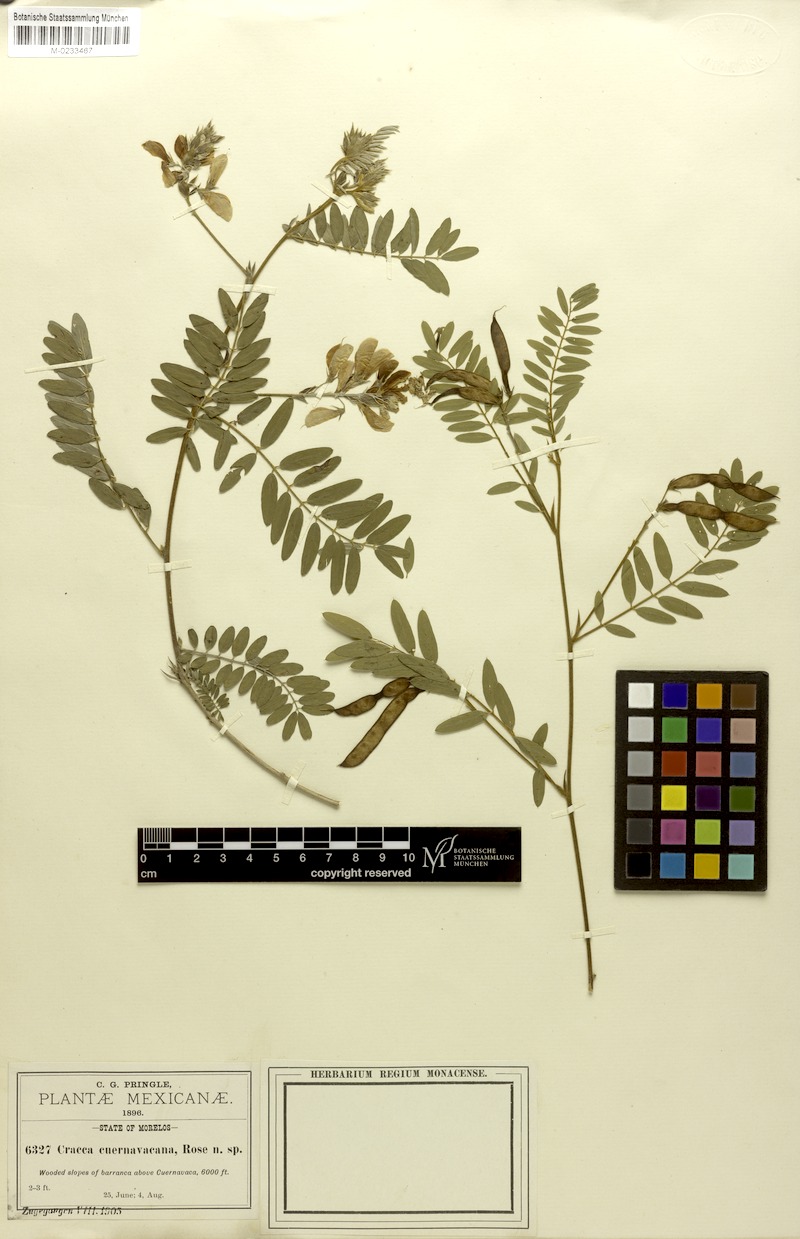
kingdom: Plantae
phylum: Tracheophyta
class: Magnoliopsida
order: Fabales
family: Fabaceae
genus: Tephrosia
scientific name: Tephrosia cuernavacana
